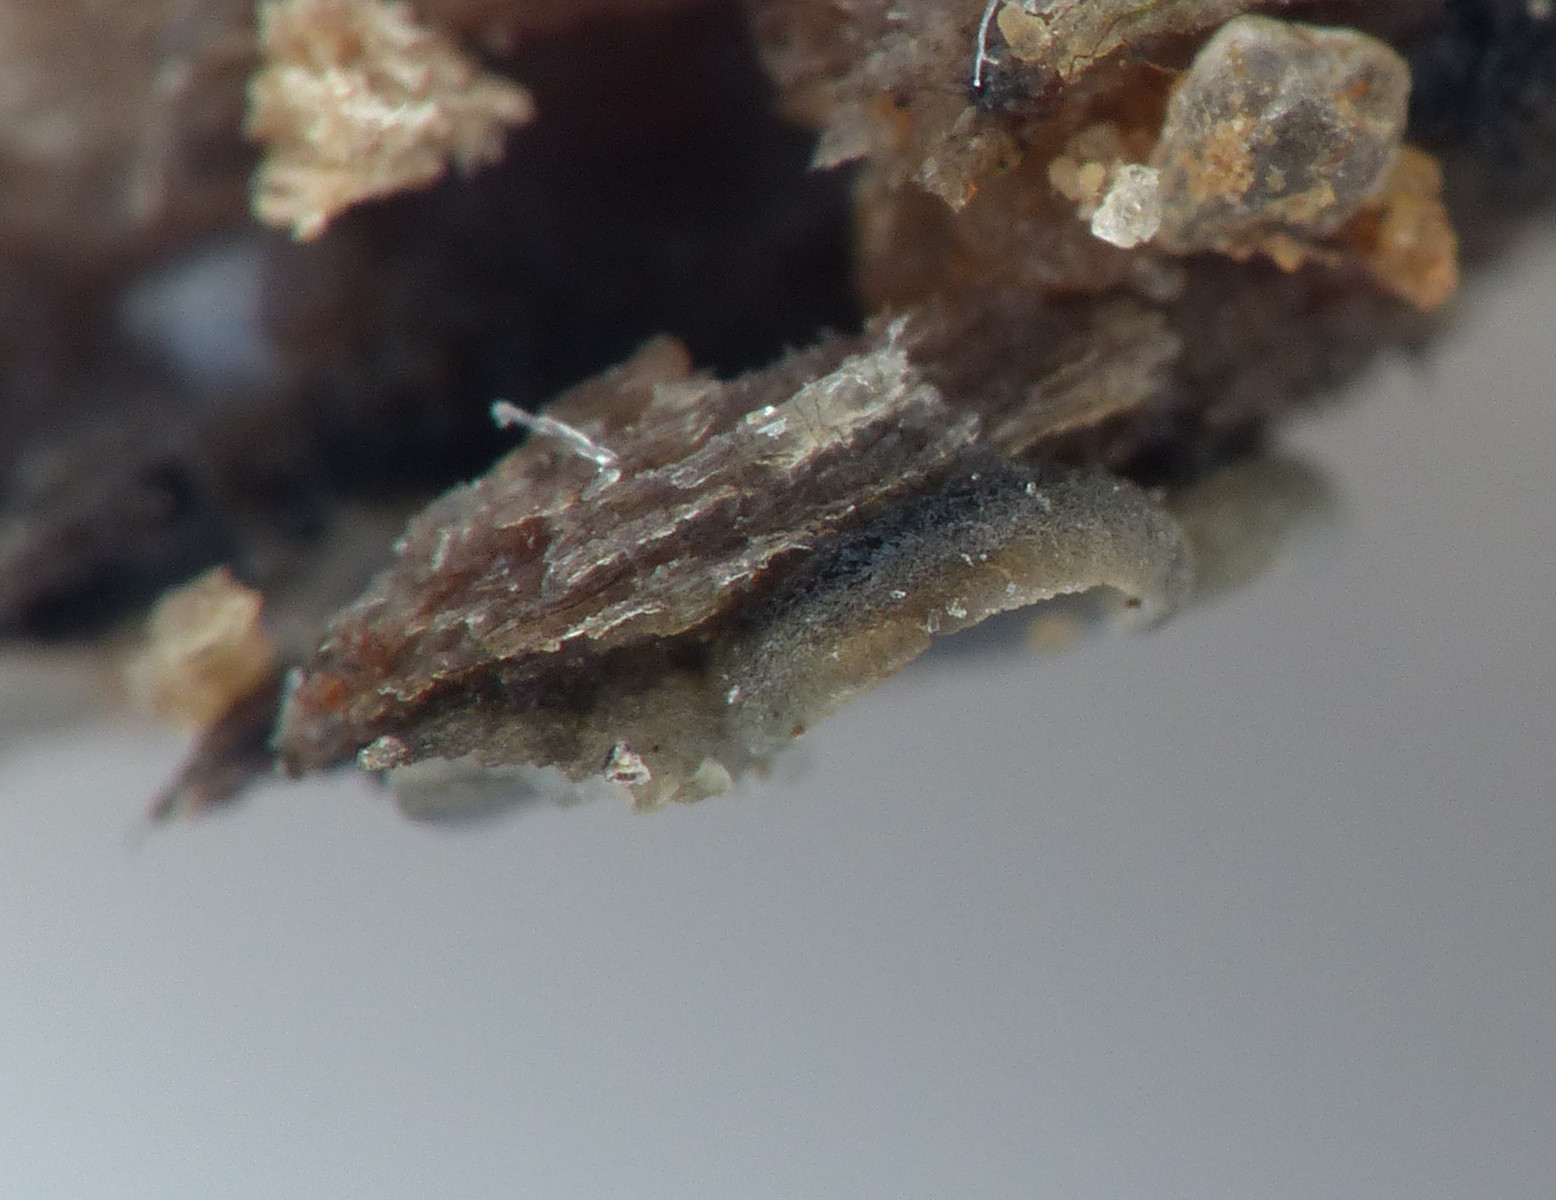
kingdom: Fungi
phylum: Ascomycota
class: Leotiomycetes
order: Helotiales
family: Mollisiaceae
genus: Mollisia
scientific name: Mollisia cinerea
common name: almindelig gråskive
